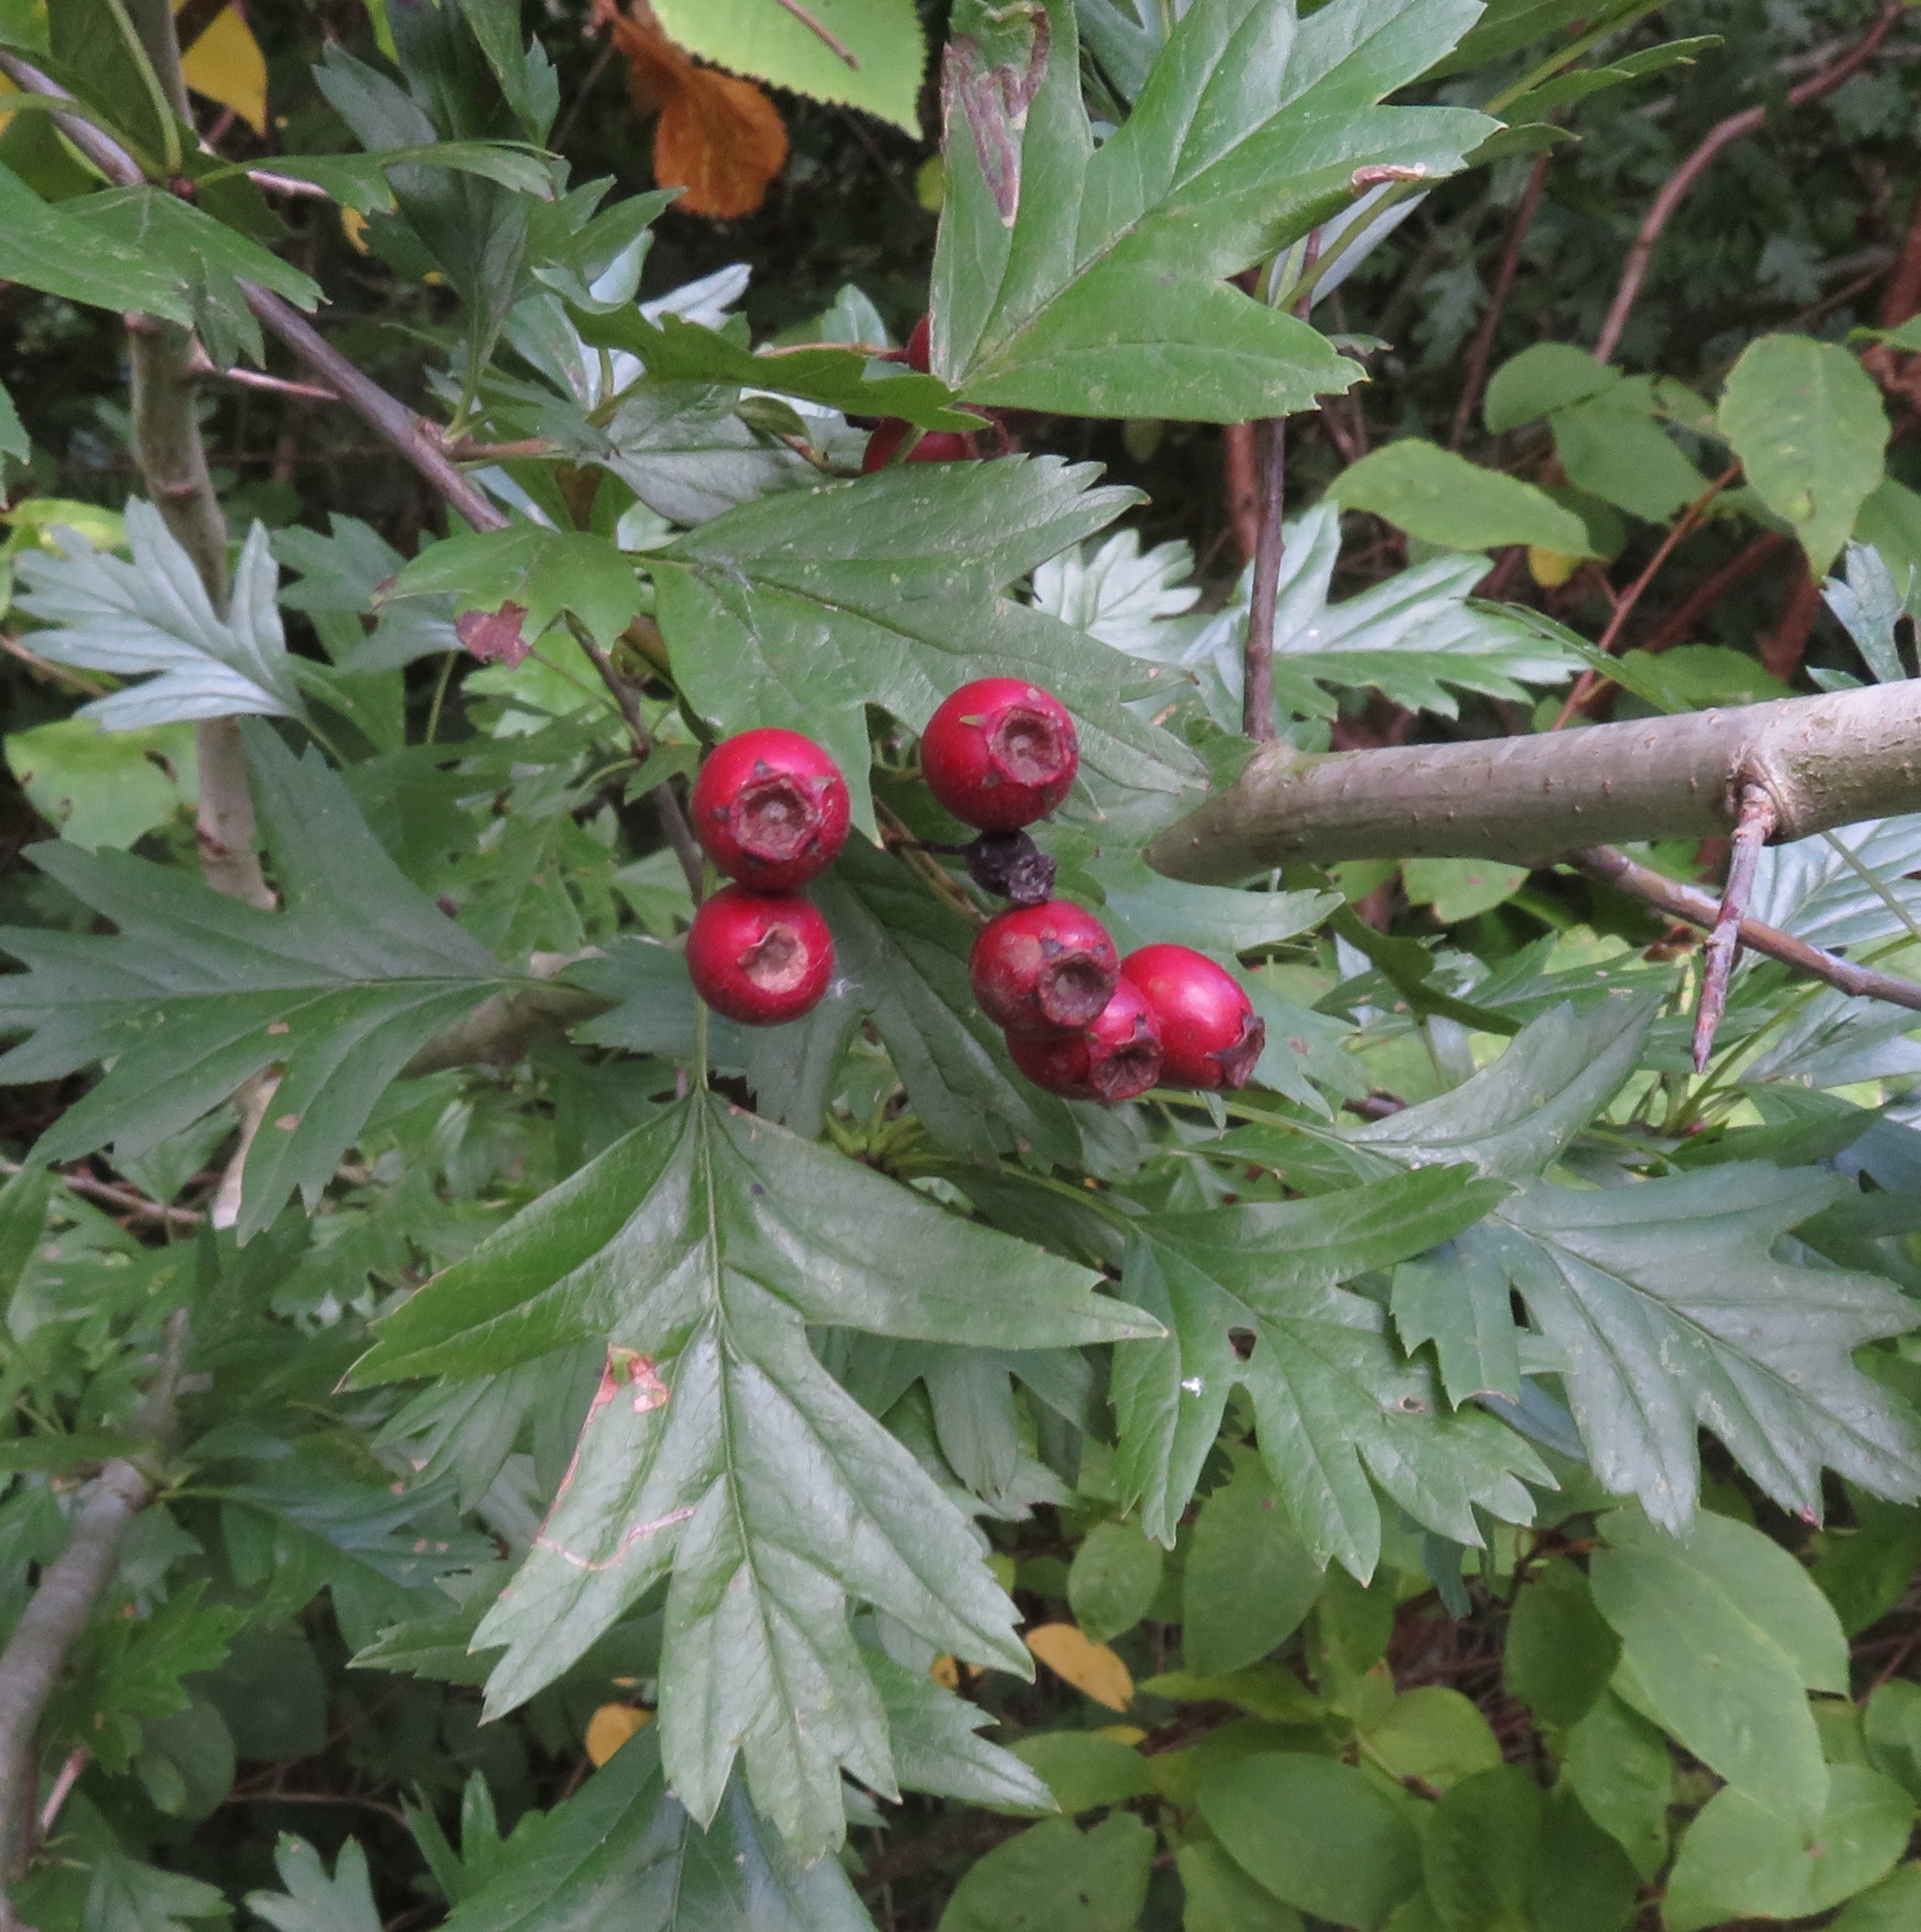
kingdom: Plantae
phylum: Tracheophyta
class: Magnoliopsida
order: Rosales
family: Rosaceae
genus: Crataegus
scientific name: Crataegus monogyna
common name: Engriflet hvidtjørn
